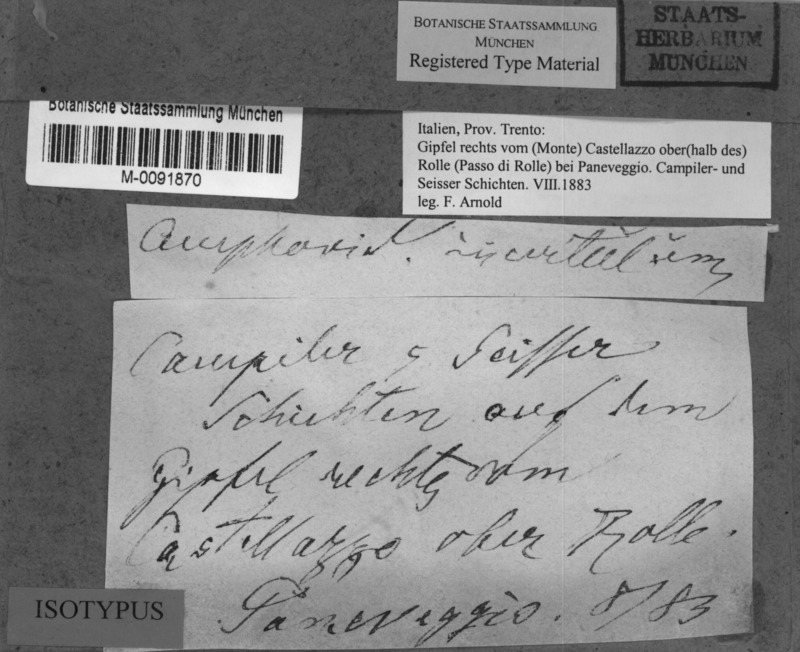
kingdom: Fungi
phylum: Ascomycota
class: Eurotiomycetes
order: Verrucariales
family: Verrucariaceae
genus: Verrucaria
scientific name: Verrucaria saprophila
